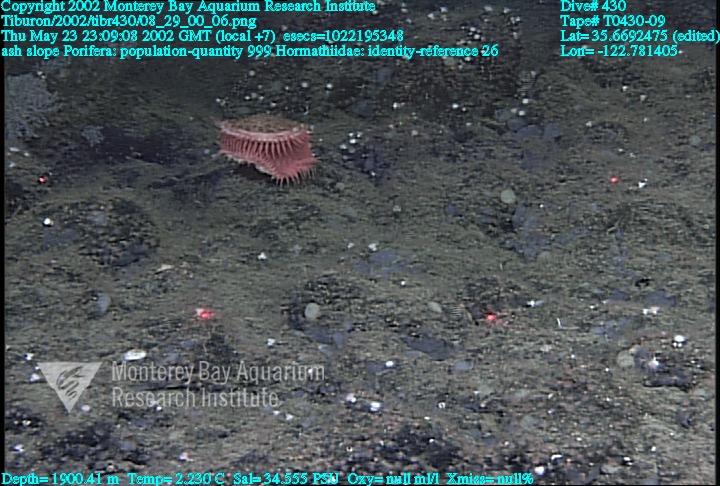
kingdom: Animalia
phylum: Porifera
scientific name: Porifera
